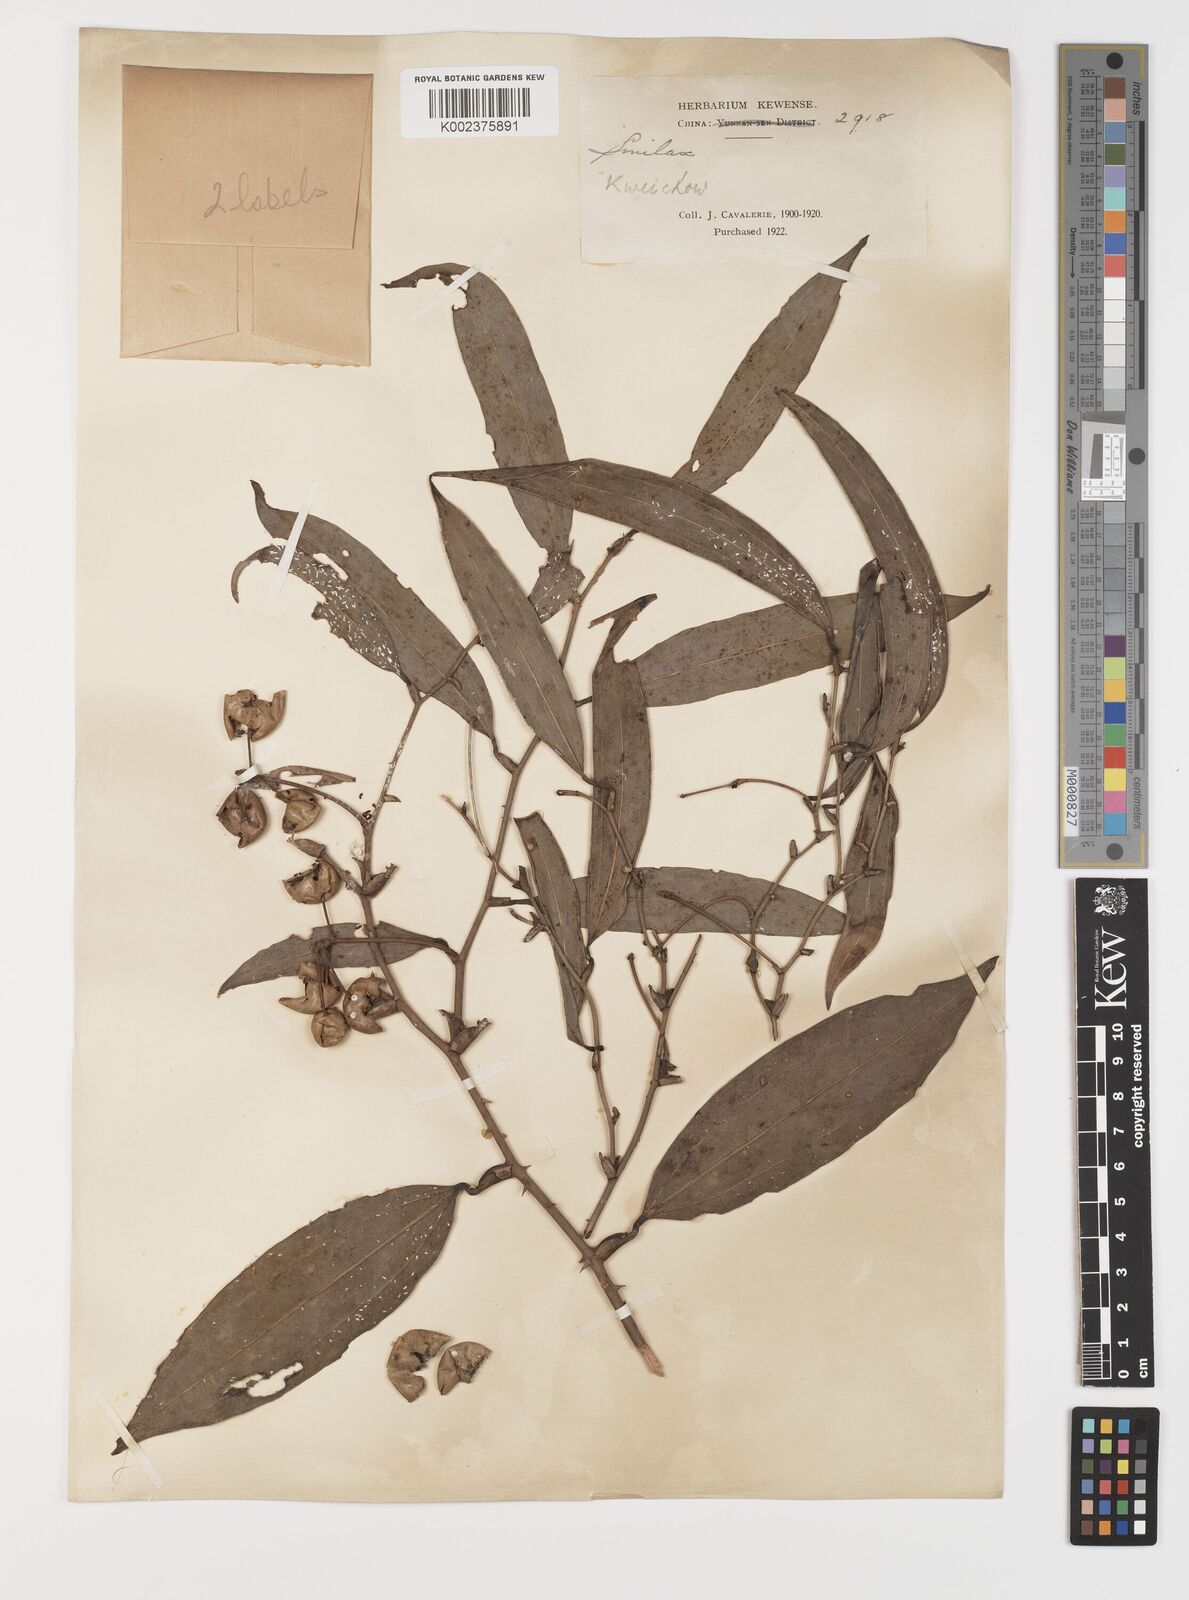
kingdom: Plantae
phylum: Tracheophyta
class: Liliopsida
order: Liliales
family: Smilacaceae
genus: Smilax
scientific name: Smilax megalantha
